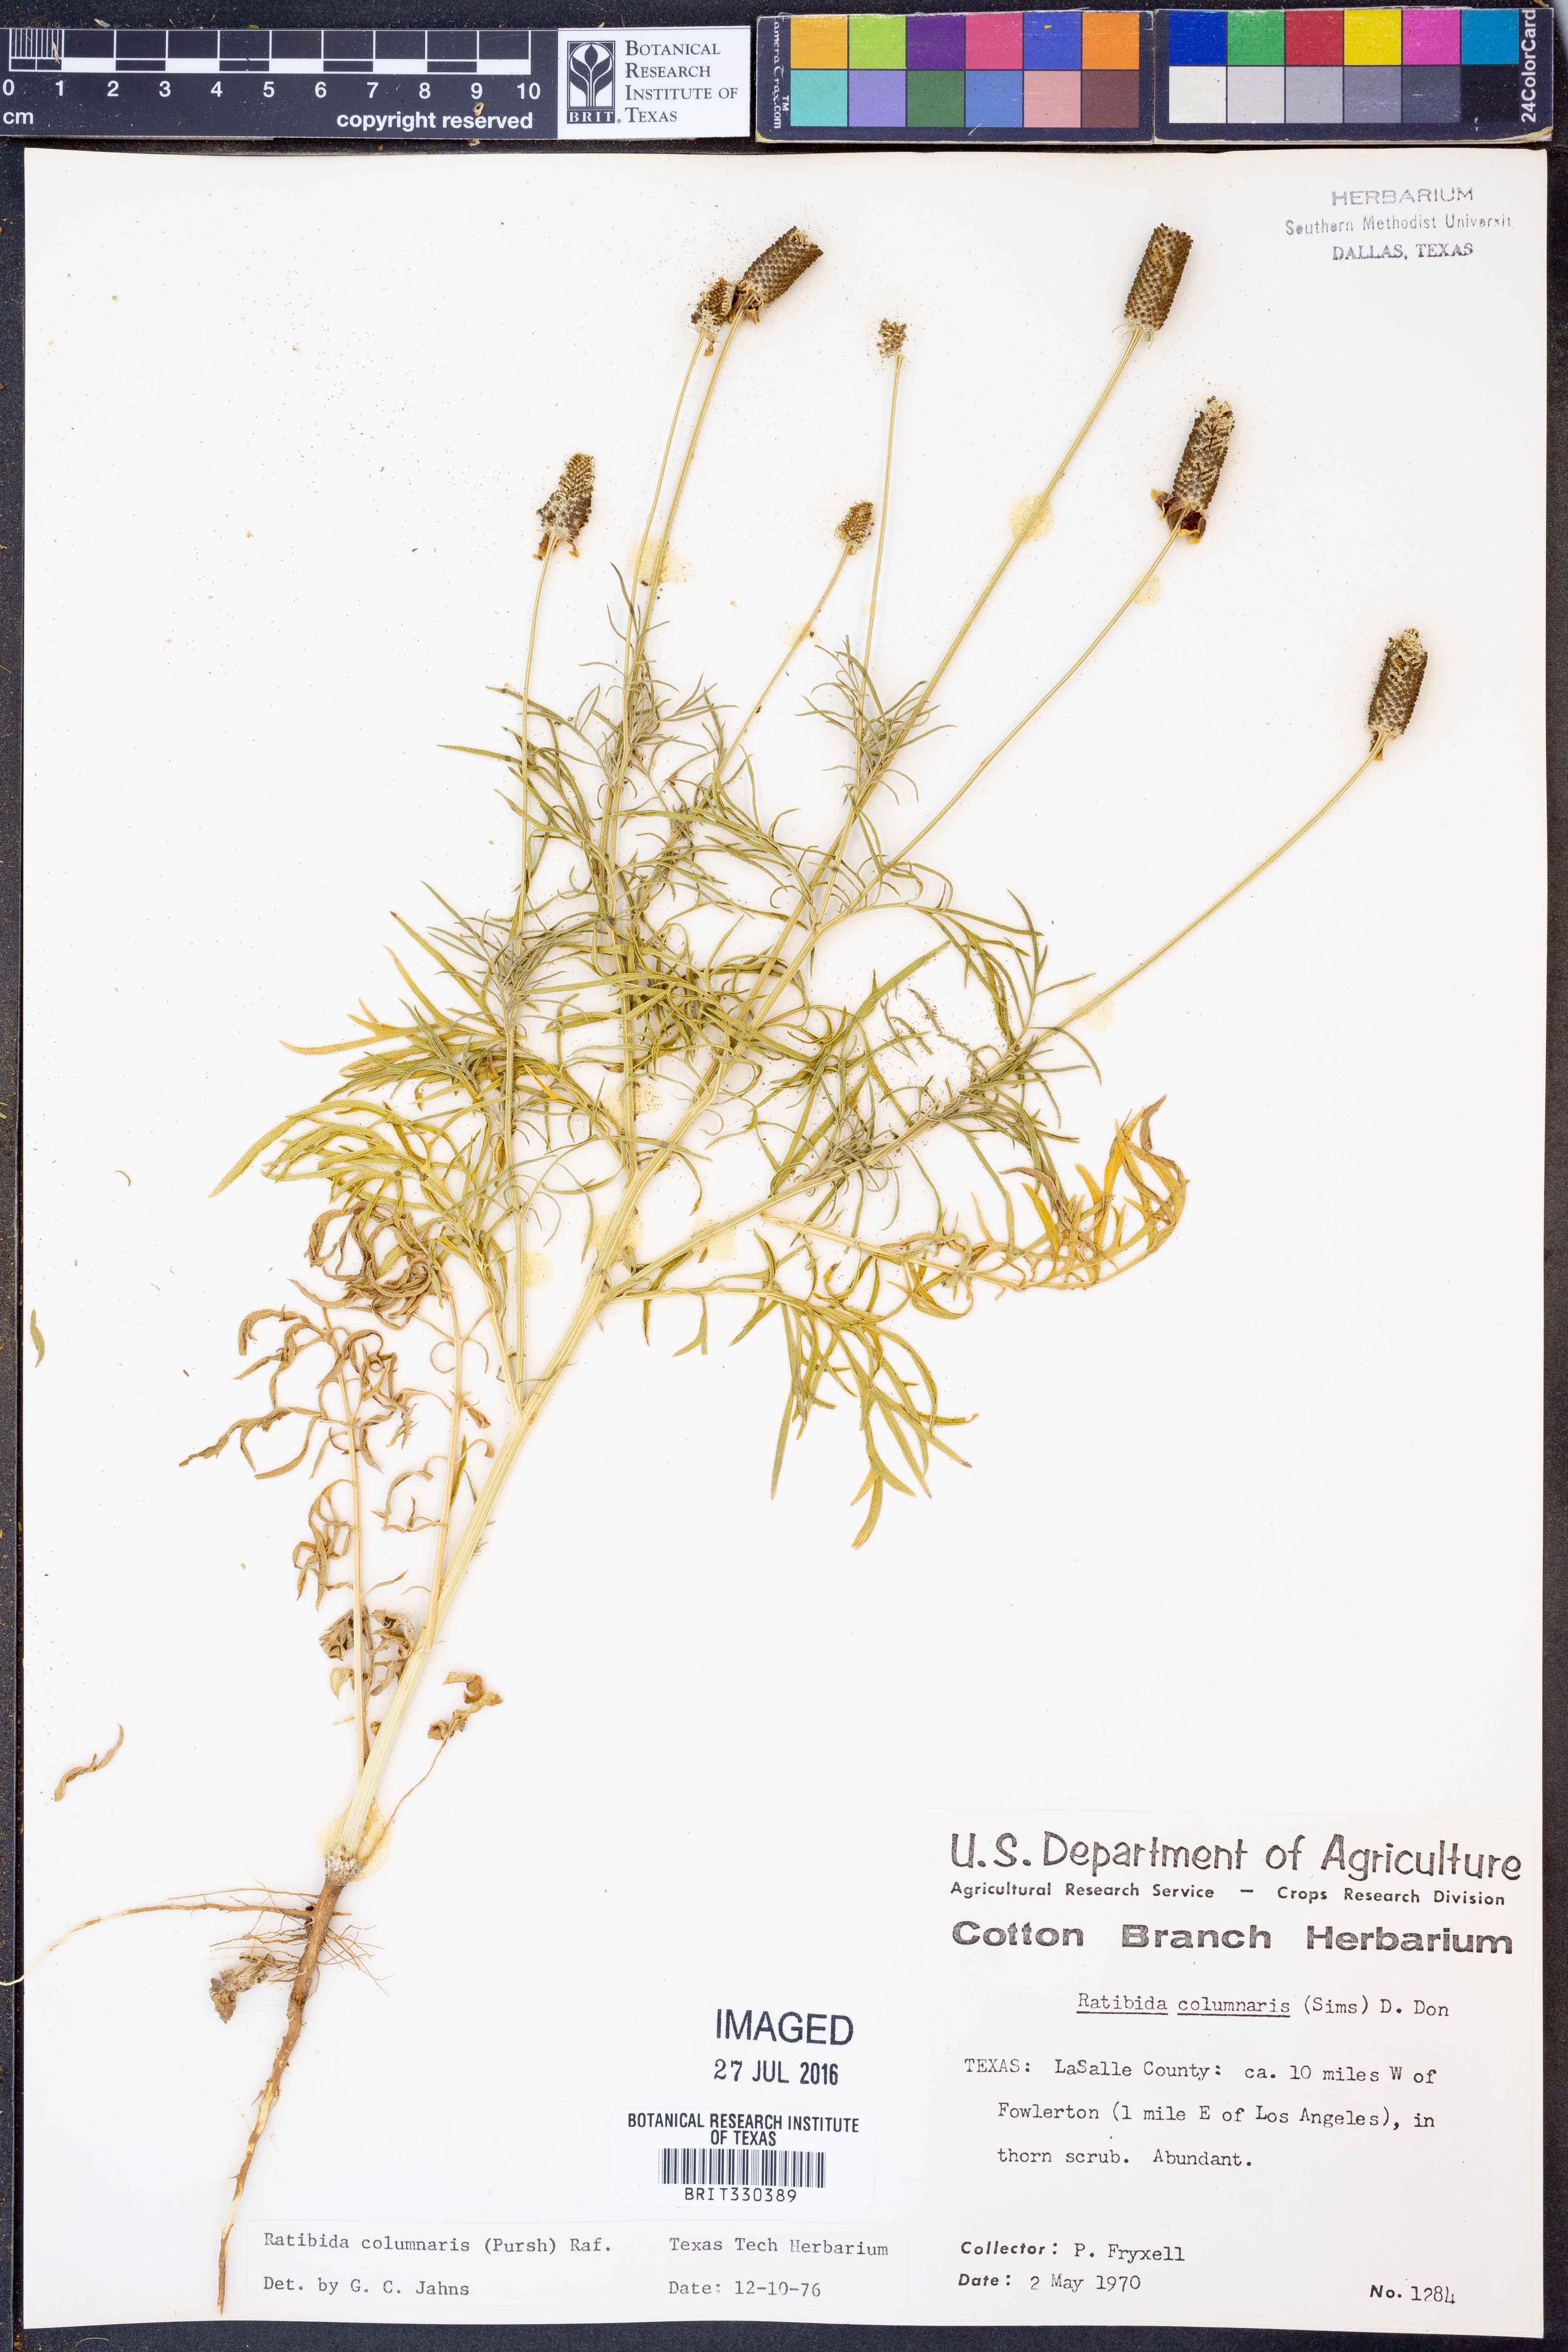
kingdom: Plantae
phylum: Tracheophyta
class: Magnoliopsida
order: Asterales
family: Asteraceae
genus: Ratibida
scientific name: Ratibida columnifera
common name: Prairie coneflower
